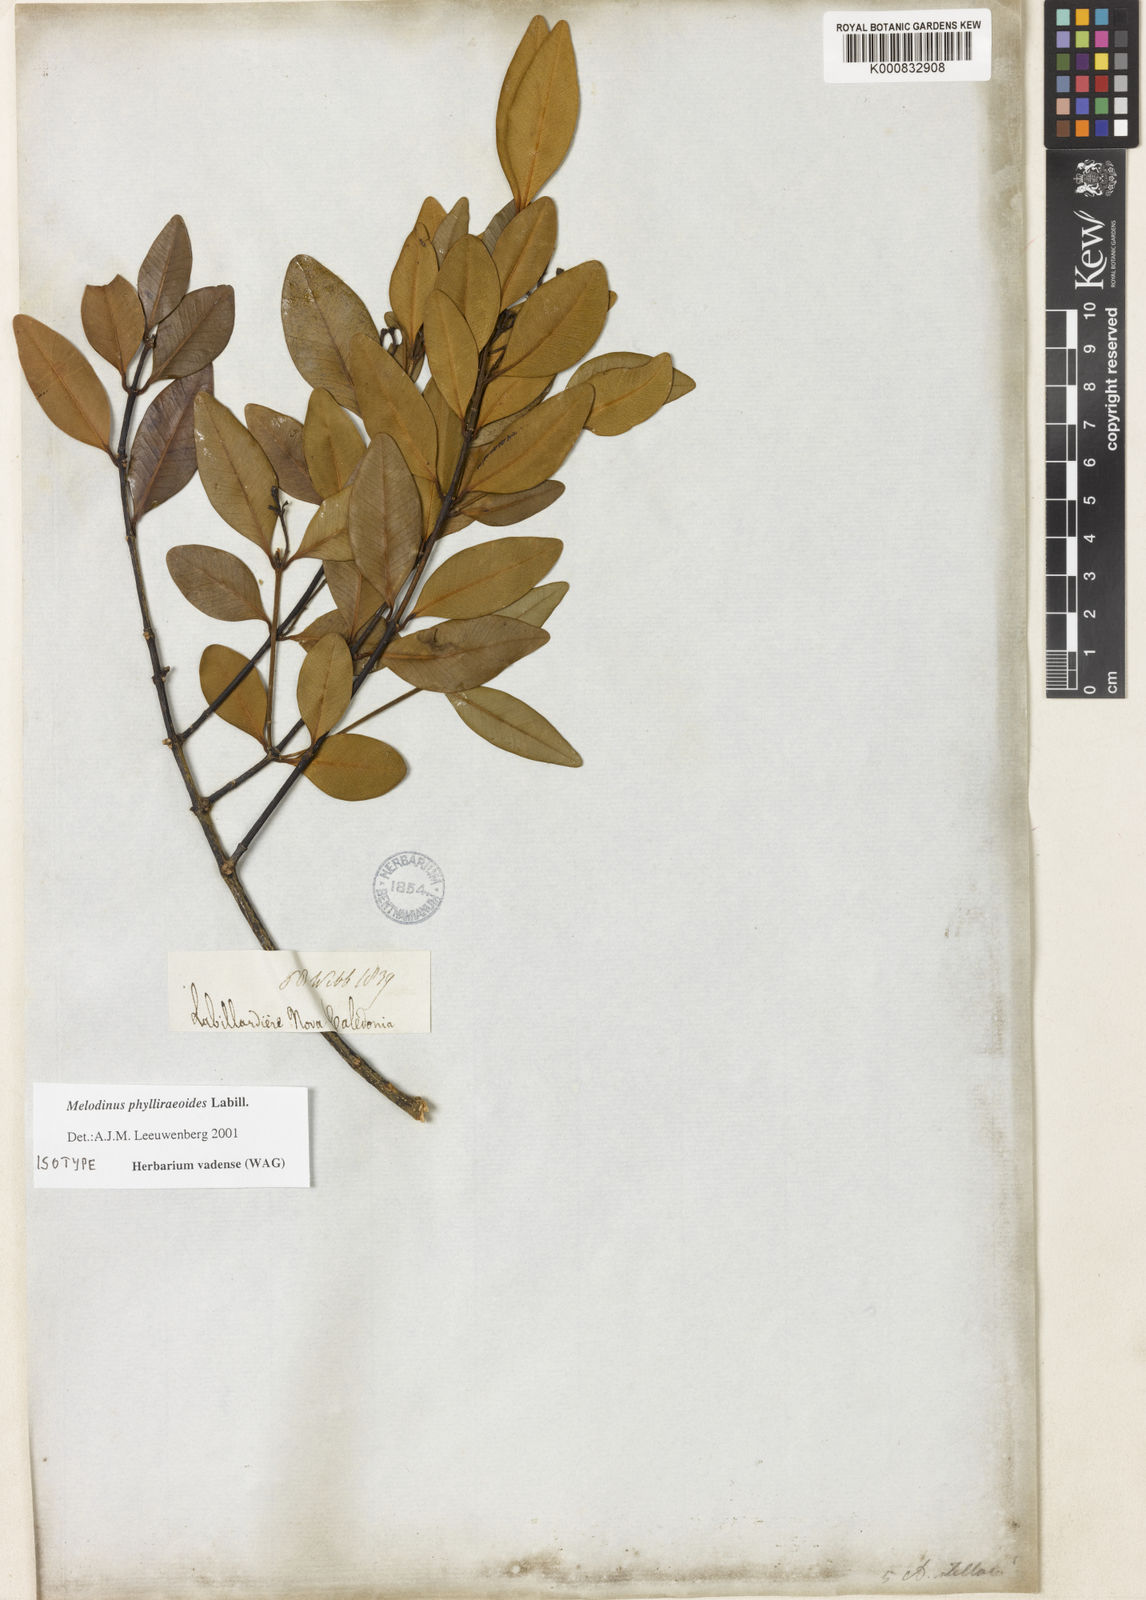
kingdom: Plantae
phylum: Tracheophyta
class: Magnoliopsida
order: Gentianales
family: Apocynaceae
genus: Melodinus
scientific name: Melodinus
